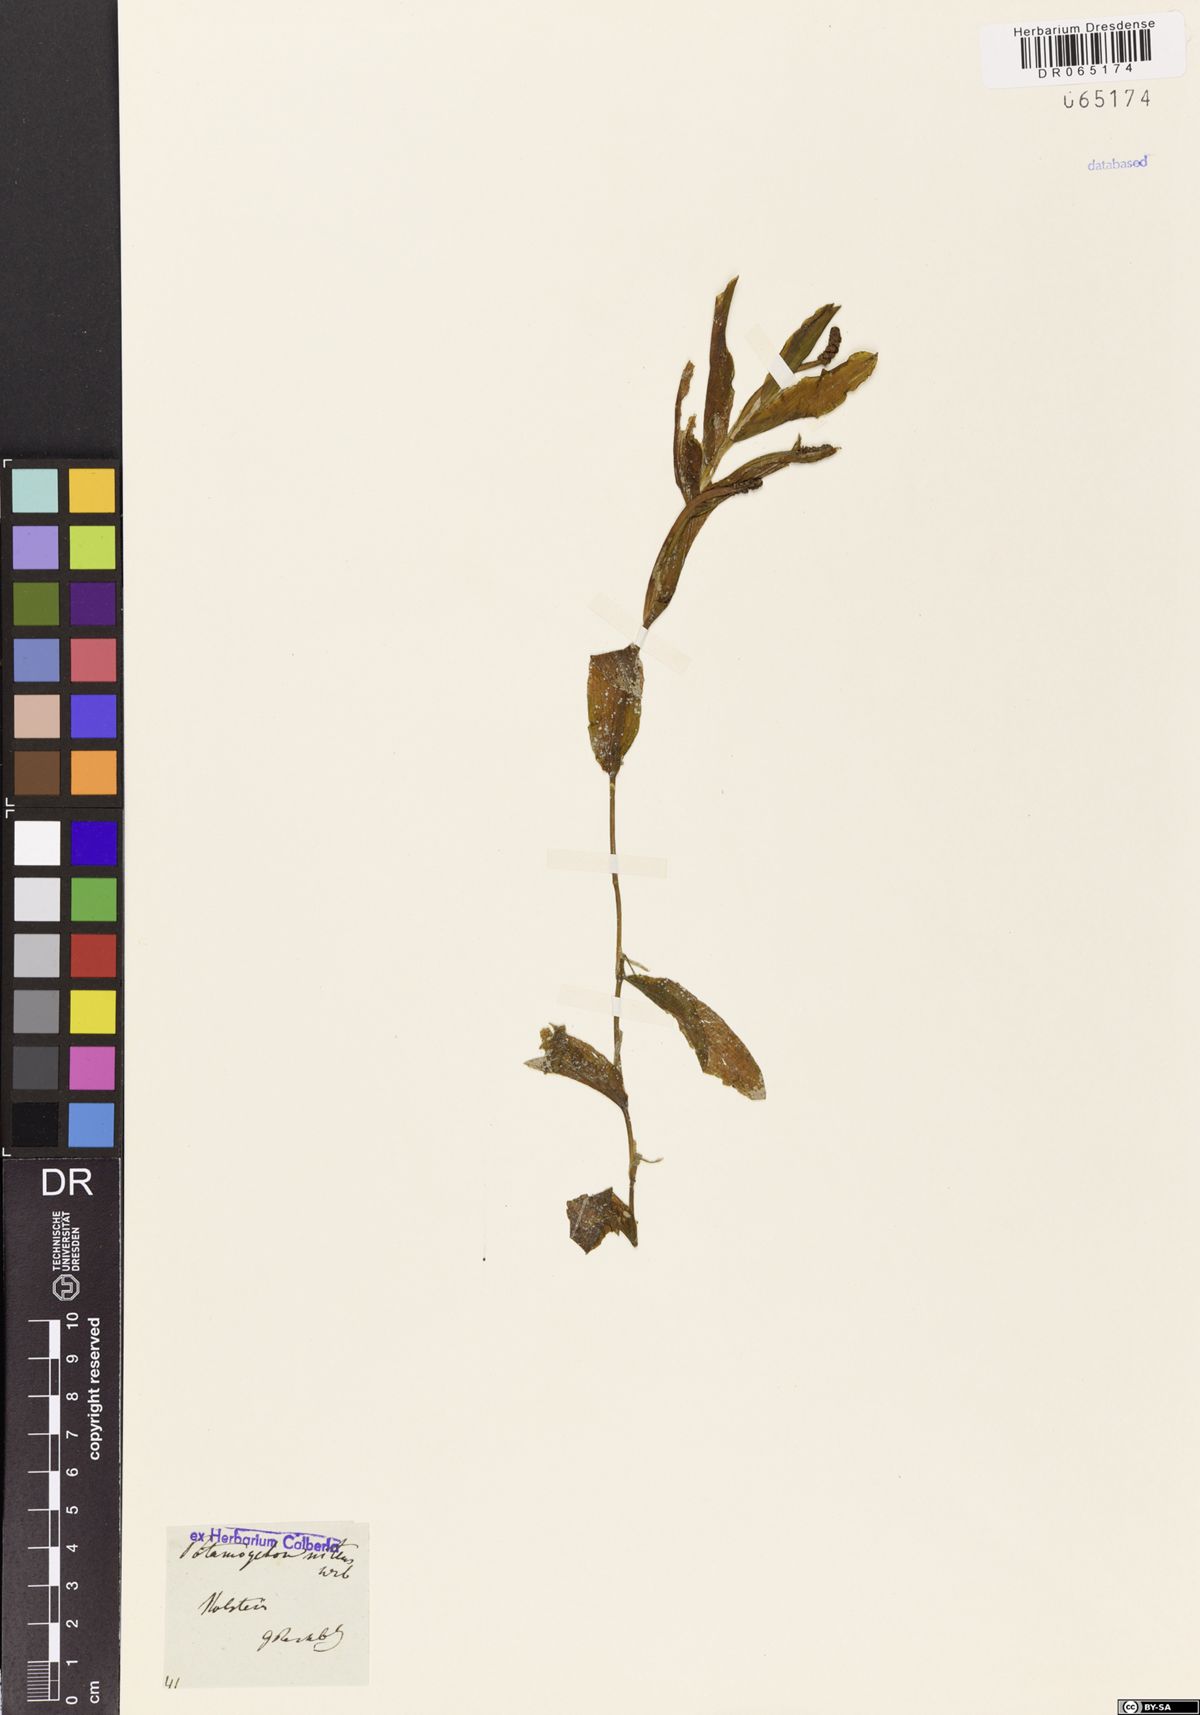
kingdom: Plantae
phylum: Tracheophyta
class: Liliopsida
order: Alismatales
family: Potamogetonaceae
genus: Potamogeton
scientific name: Potamogeton nitens
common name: Pondweed
